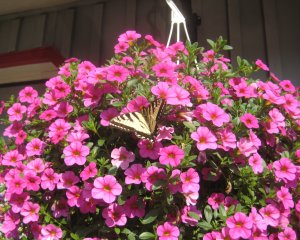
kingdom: Animalia
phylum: Arthropoda
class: Insecta
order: Lepidoptera
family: Papilionidae
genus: Pterourus
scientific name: Pterourus canadensis
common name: Canadian Tiger Swallowtail
